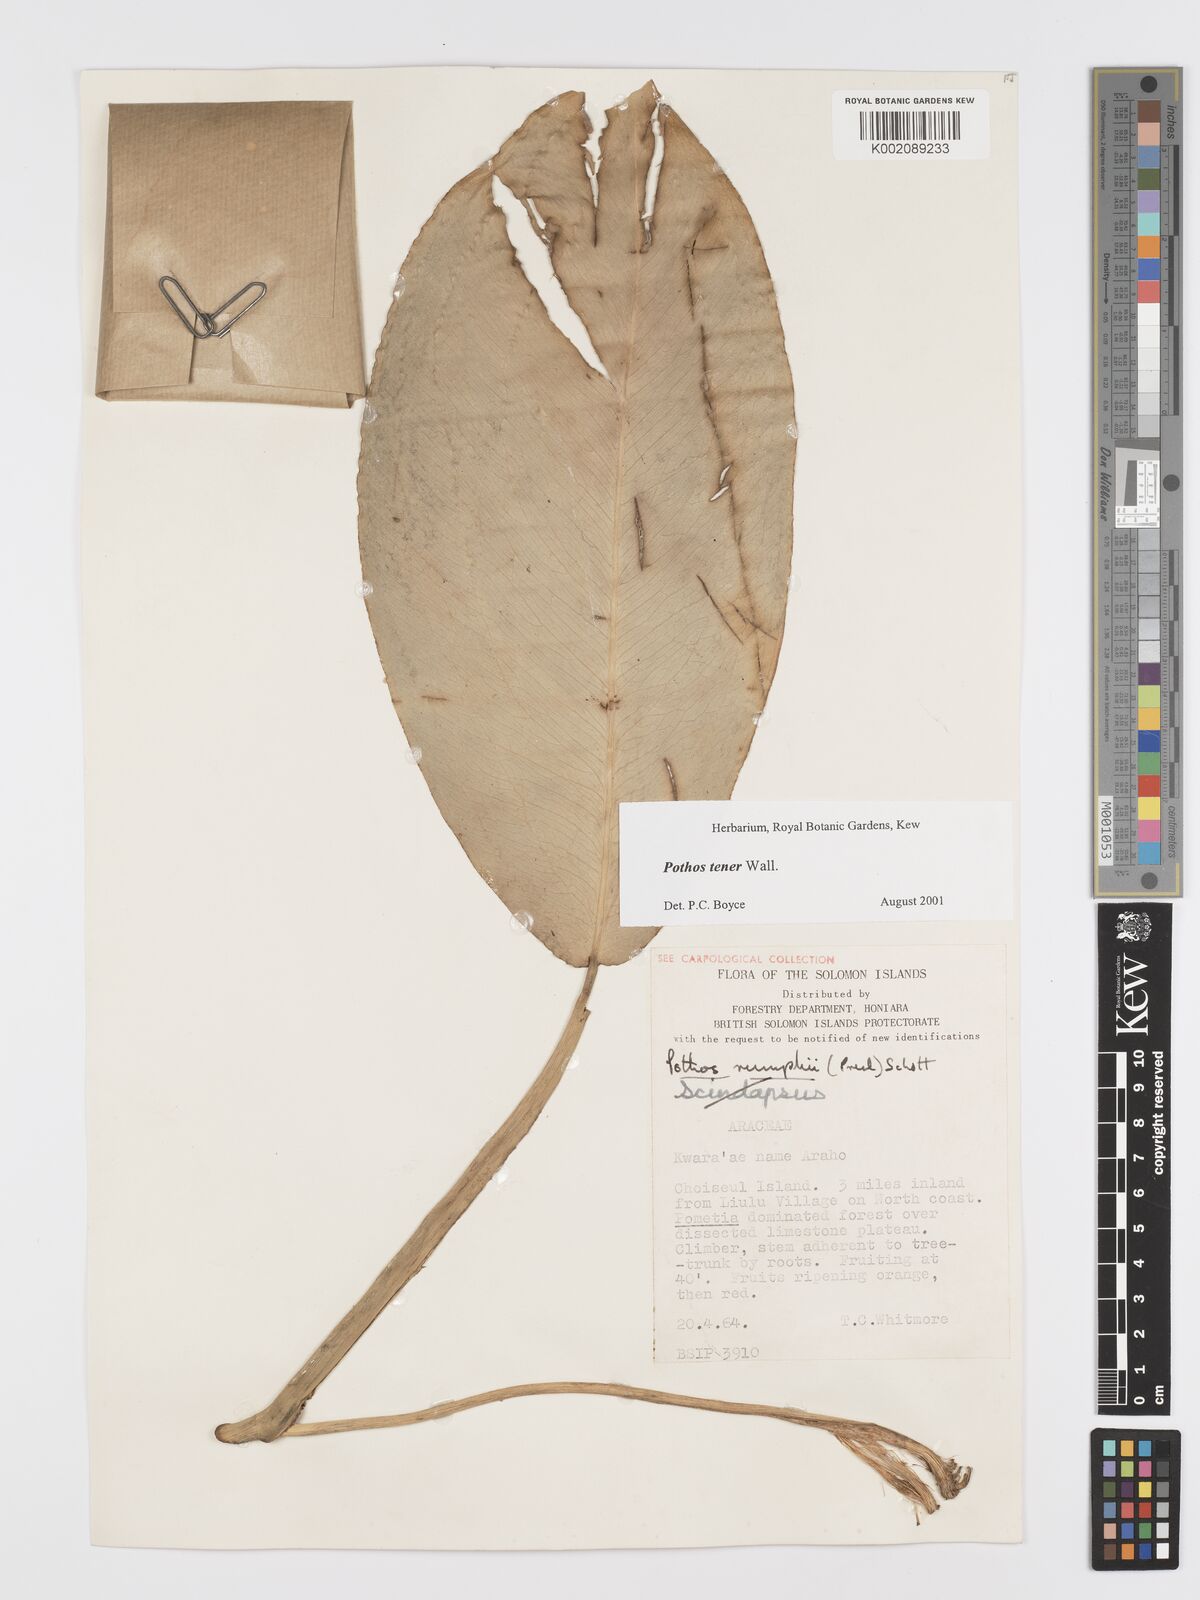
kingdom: Plantae
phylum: Tracheophyta
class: Liliopsida
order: Alismatales
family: Araceae
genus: Pothos
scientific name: Pothos tener
